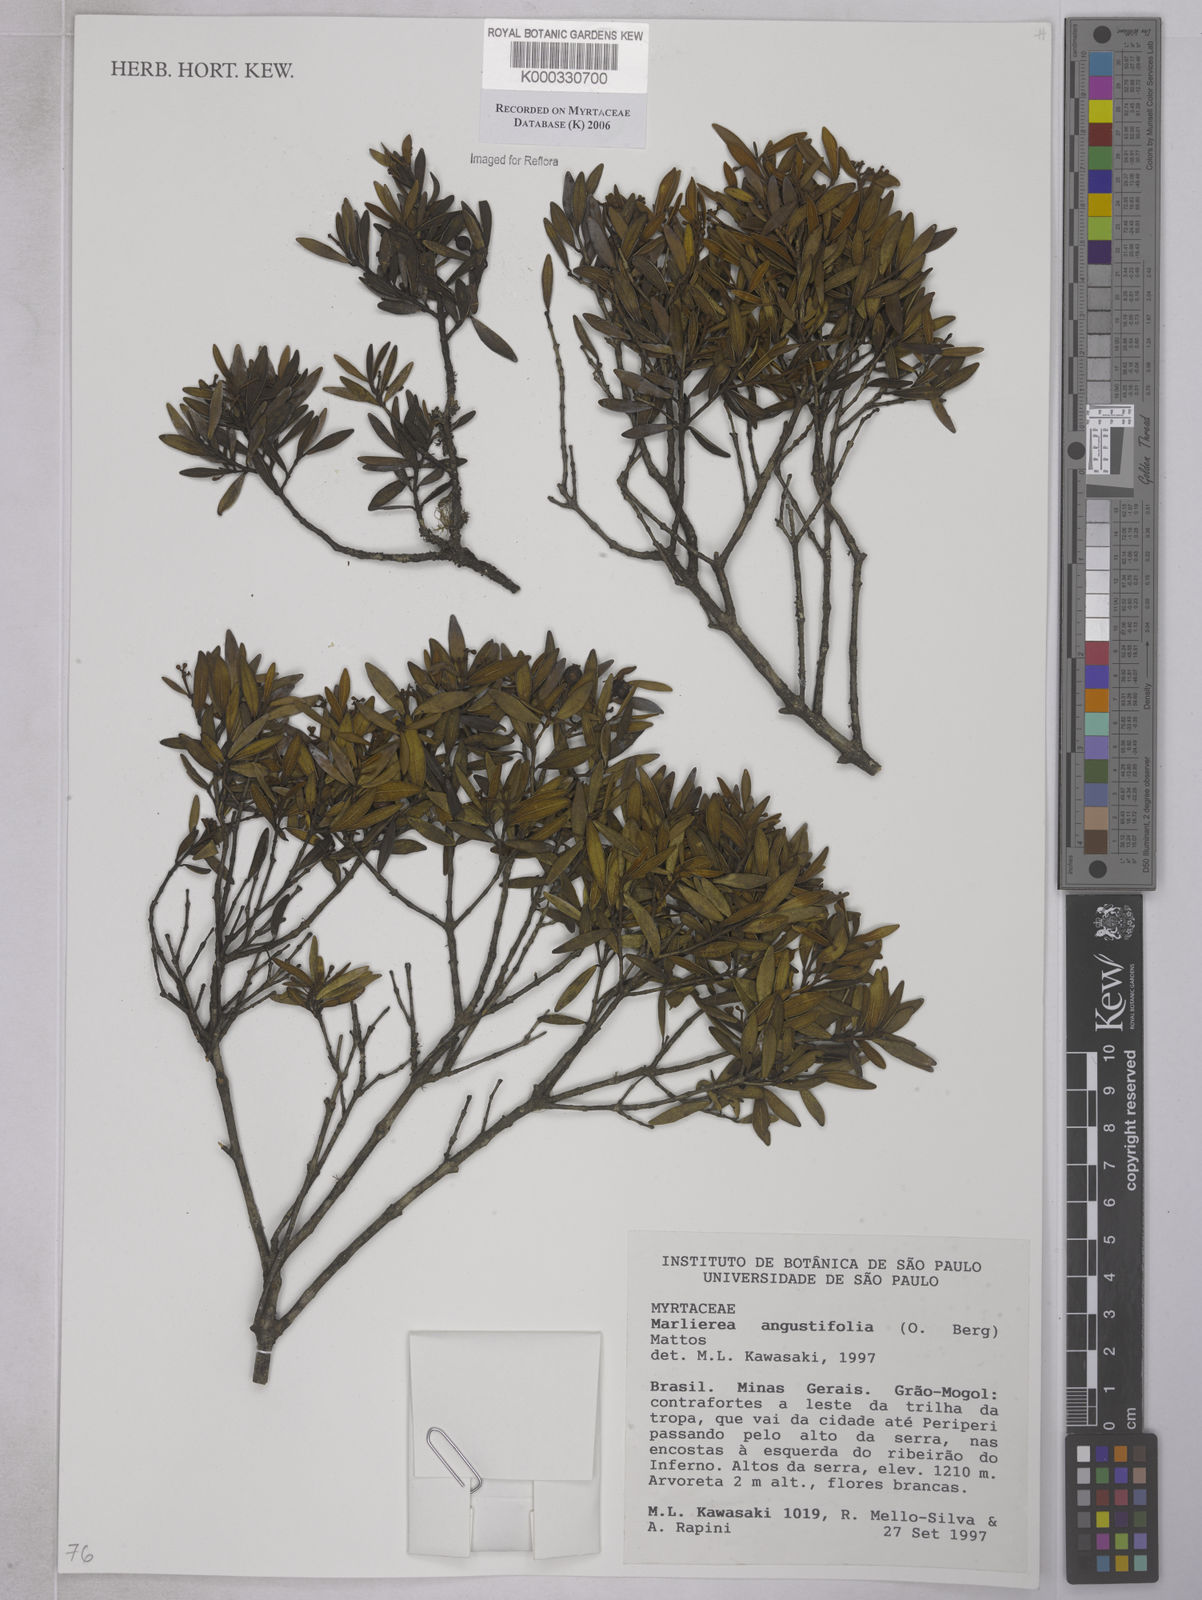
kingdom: Plantae
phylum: Tracheophyta
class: Magnoliopsida
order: Myrtales
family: Myrtaceae
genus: Myrcia
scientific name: Myrcia lenheirensis
